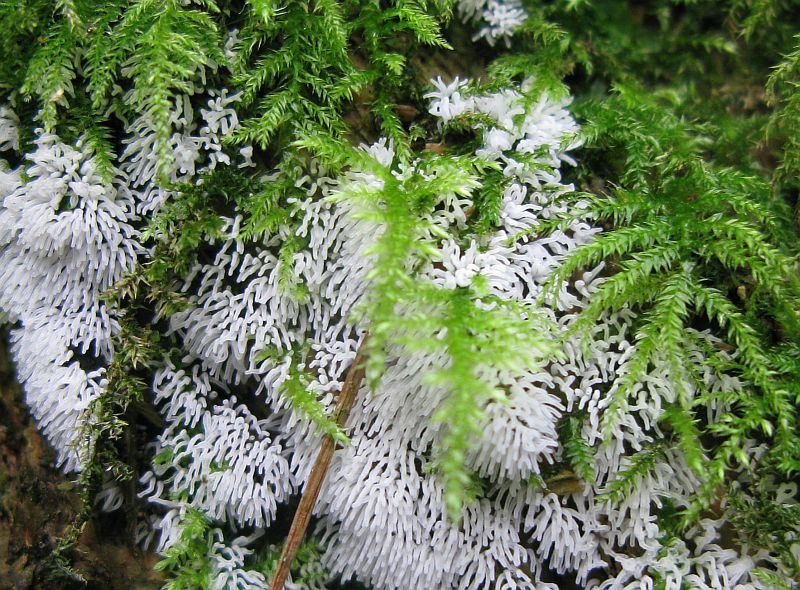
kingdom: Protozoa
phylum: Mycetozoa
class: Protosteliomycetes
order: Ceratiomyxales
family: Ceratiomyxaceae
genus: Ceratiomyxa
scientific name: Ceratiomyxa fruticulosa
